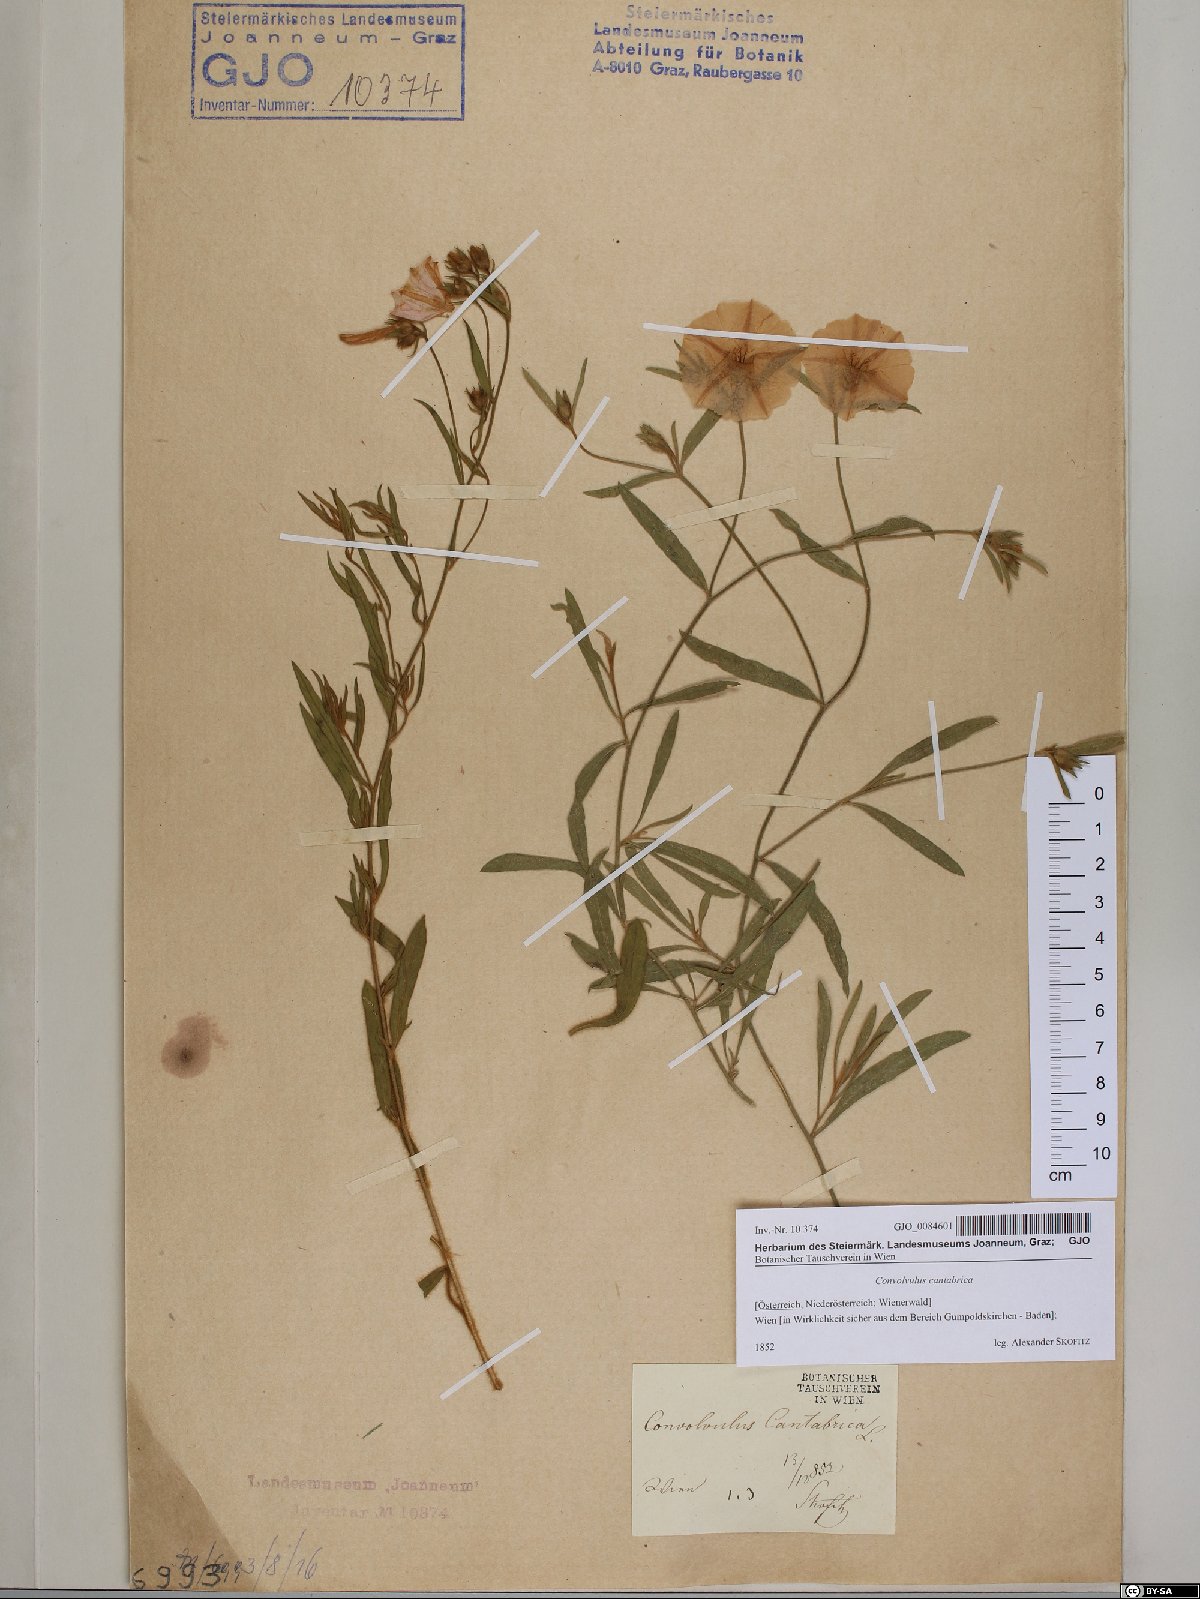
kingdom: Plantae
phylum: Tracheophyta
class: Magnoliopsida
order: Solanales
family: Convolvulaceae
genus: Convolvulus
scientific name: Convolvulus cantabrica
